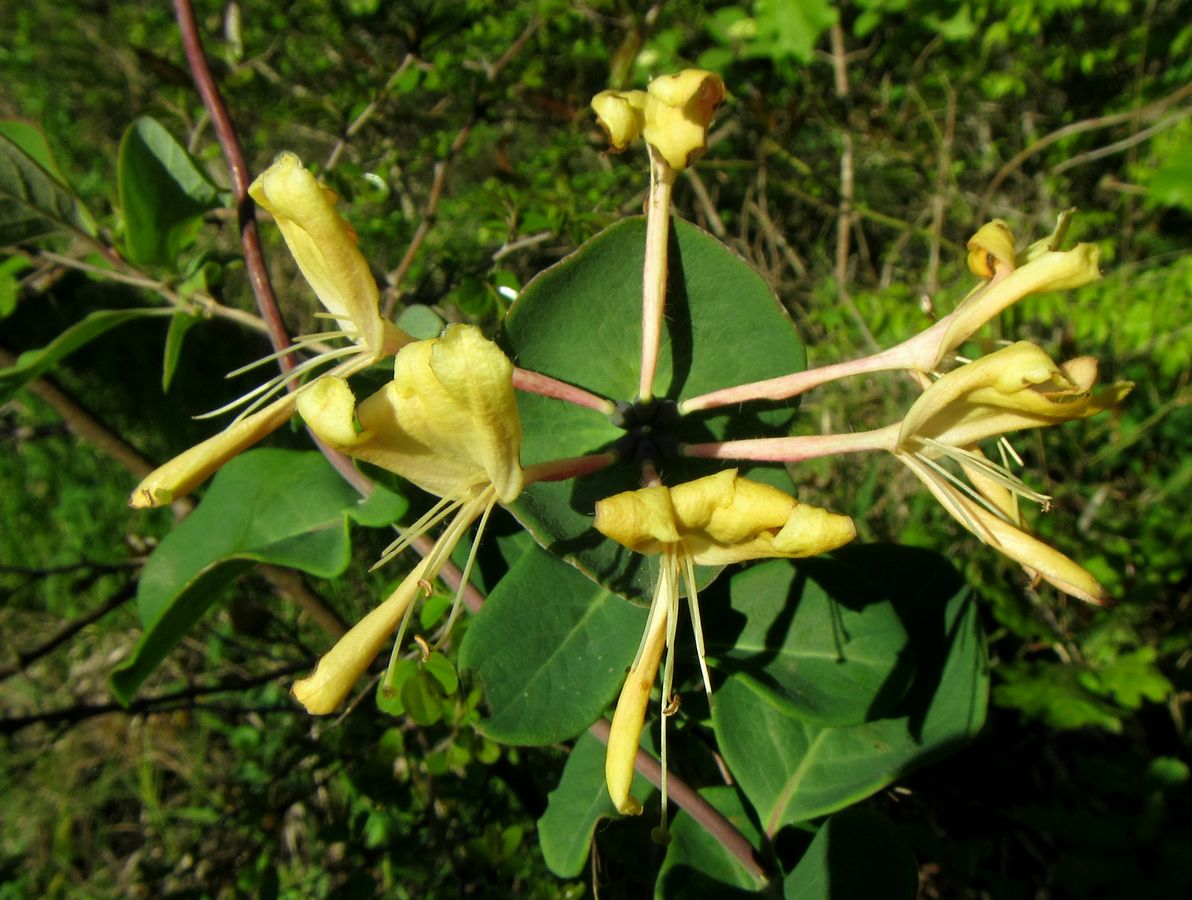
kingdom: Plantae
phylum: Tracheophyta
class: Magnoliopsida
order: Dipsacales
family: Caprifoliaceae
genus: Lonicera
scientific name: Lonicera caprifolium
